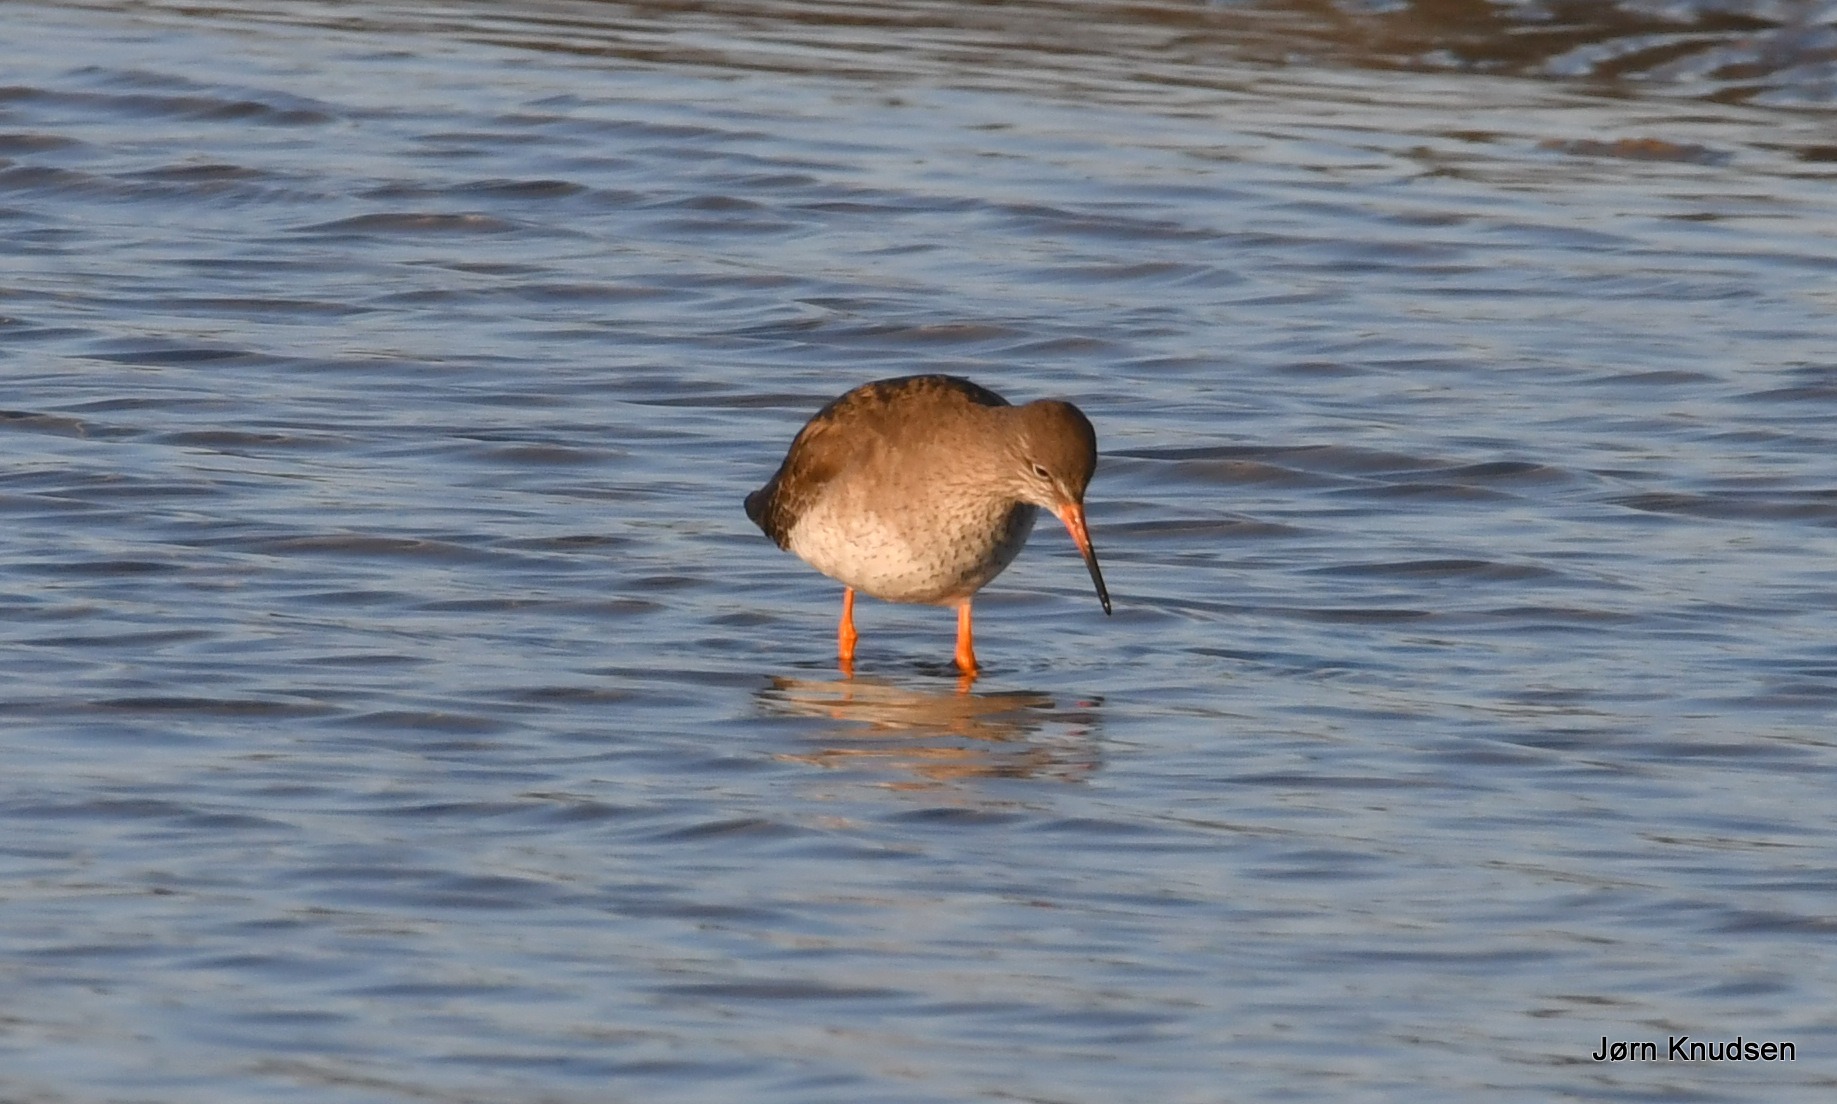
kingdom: Animalia
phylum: Chordata
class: Aves
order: Charadriiformes
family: Scolopacidae
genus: Tringa
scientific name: Tringa totanus
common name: Rødben
